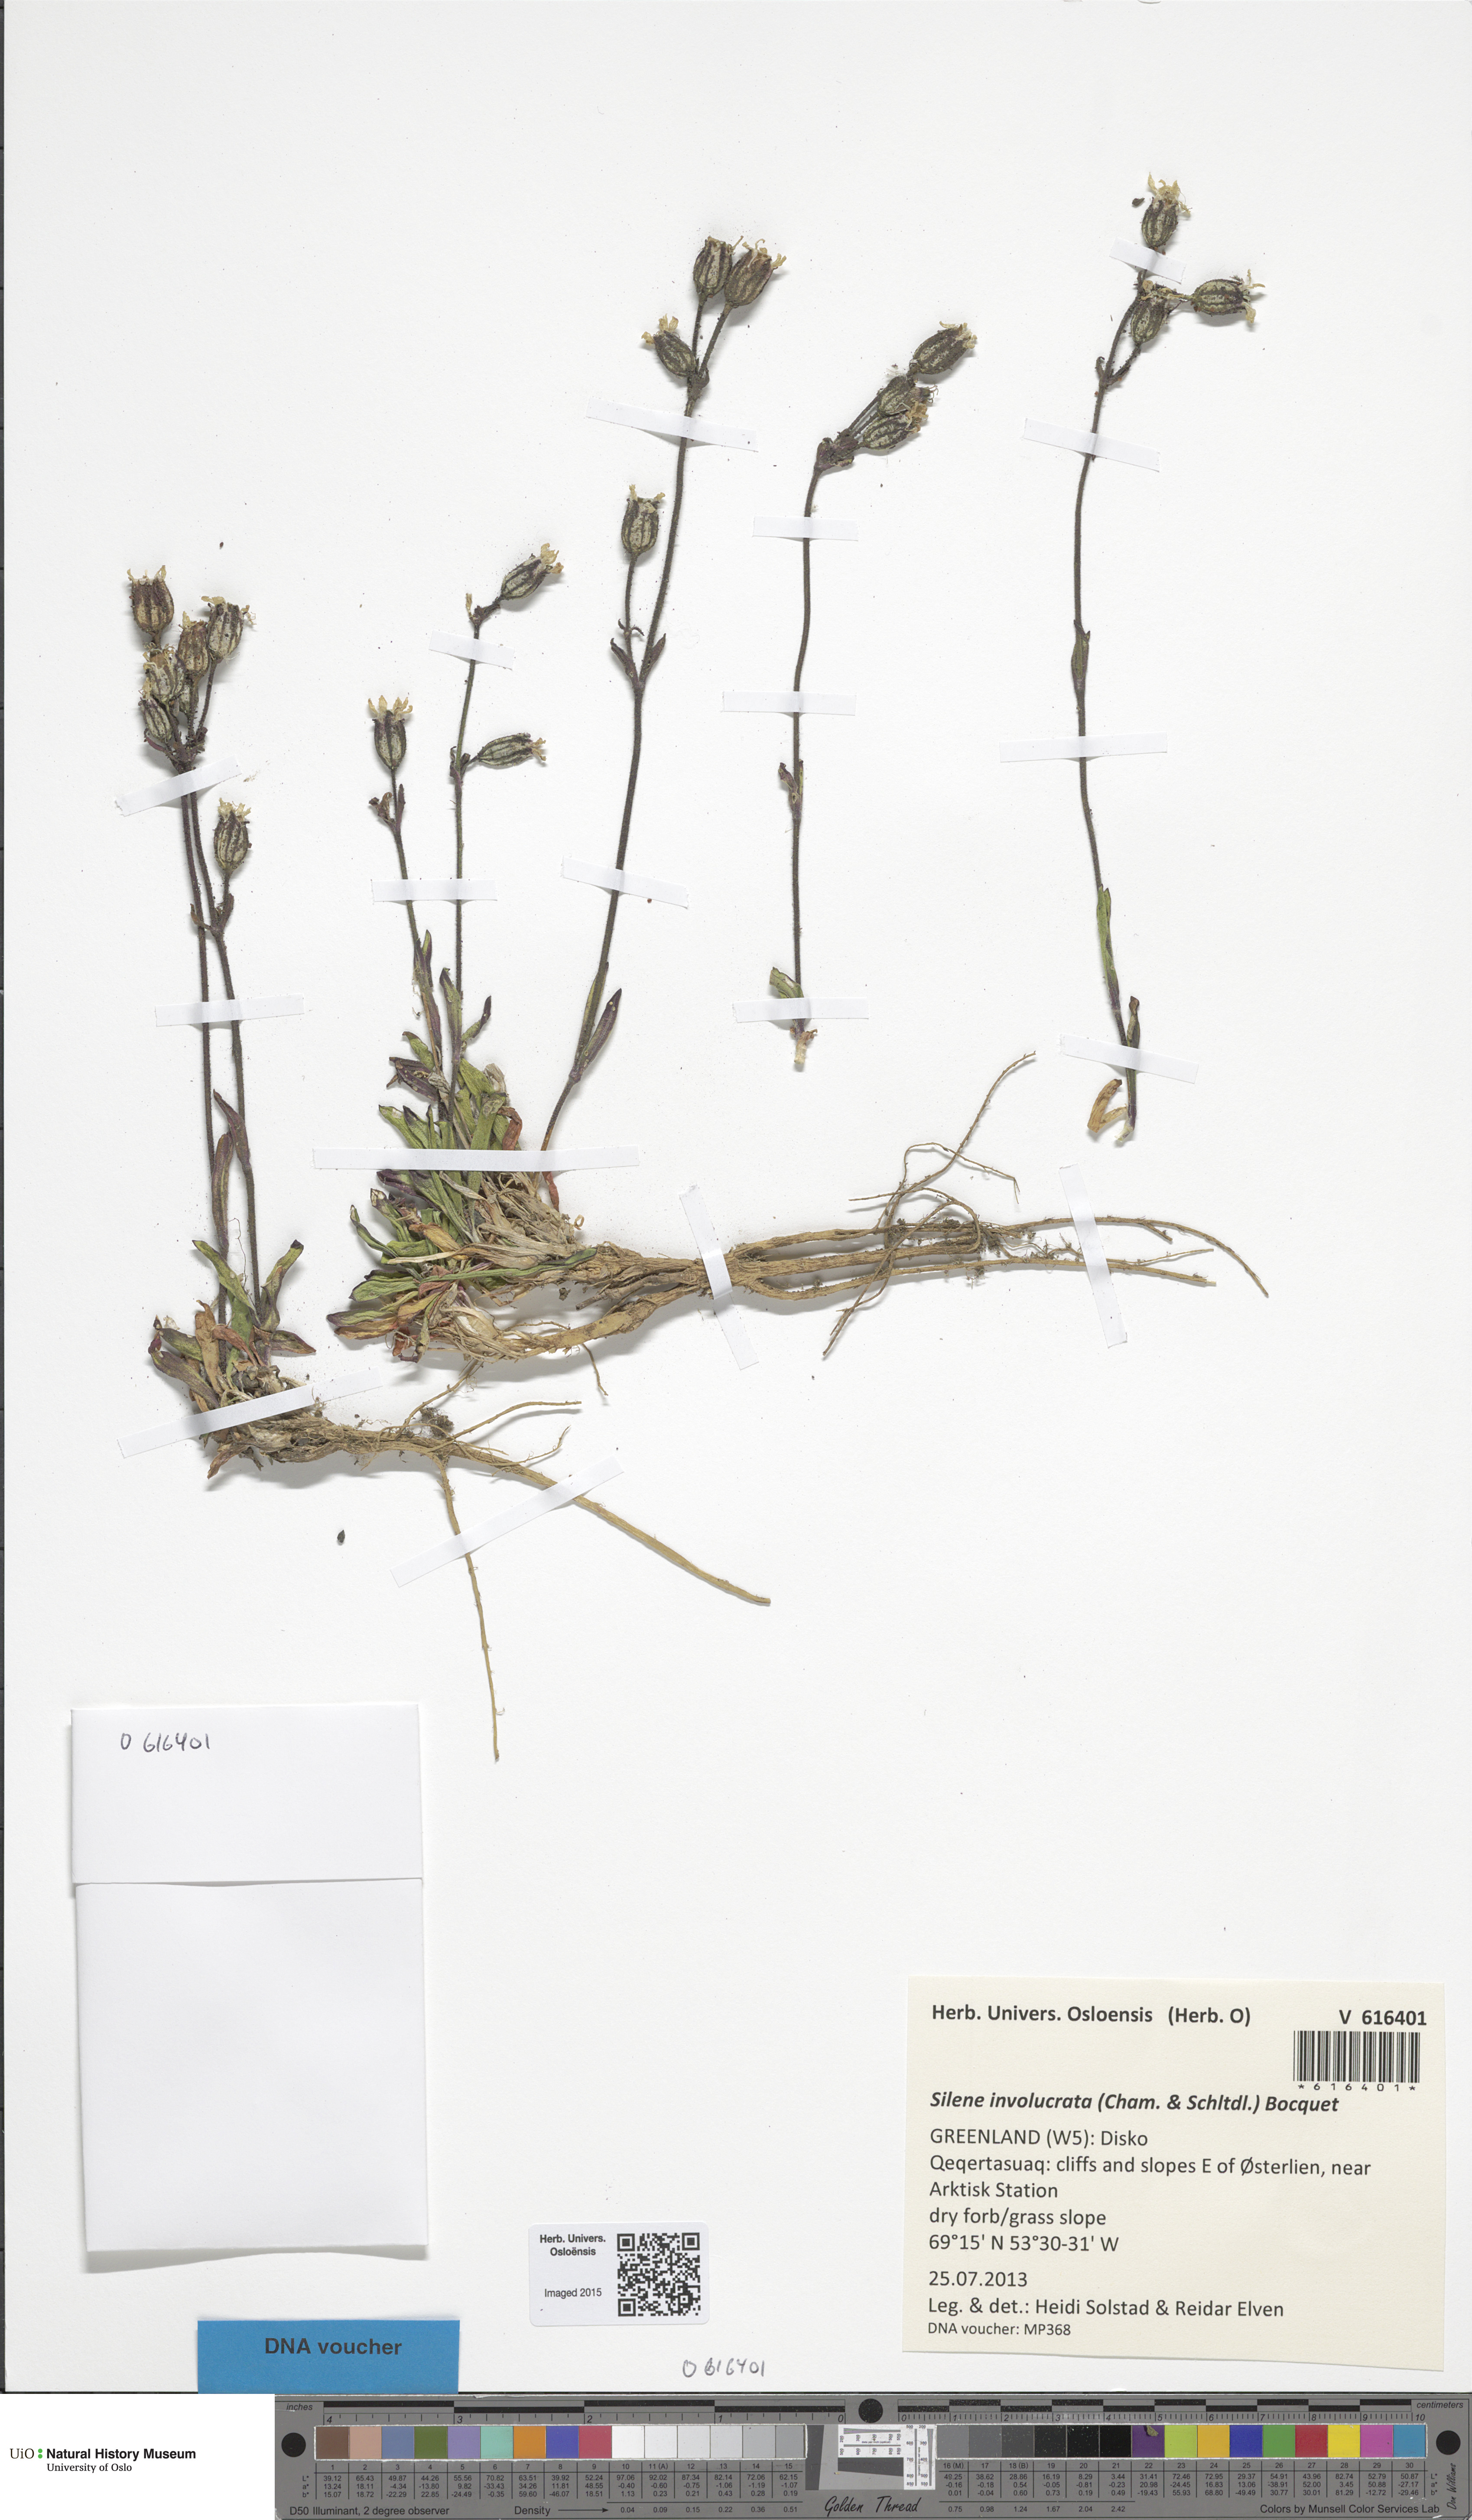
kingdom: Plantae
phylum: Tracheophyta
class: Magnoliopsida
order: Caryophyllales
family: Caryophyllaceae
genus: Silene
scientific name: Silene involucrata
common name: Greater arctic campion
